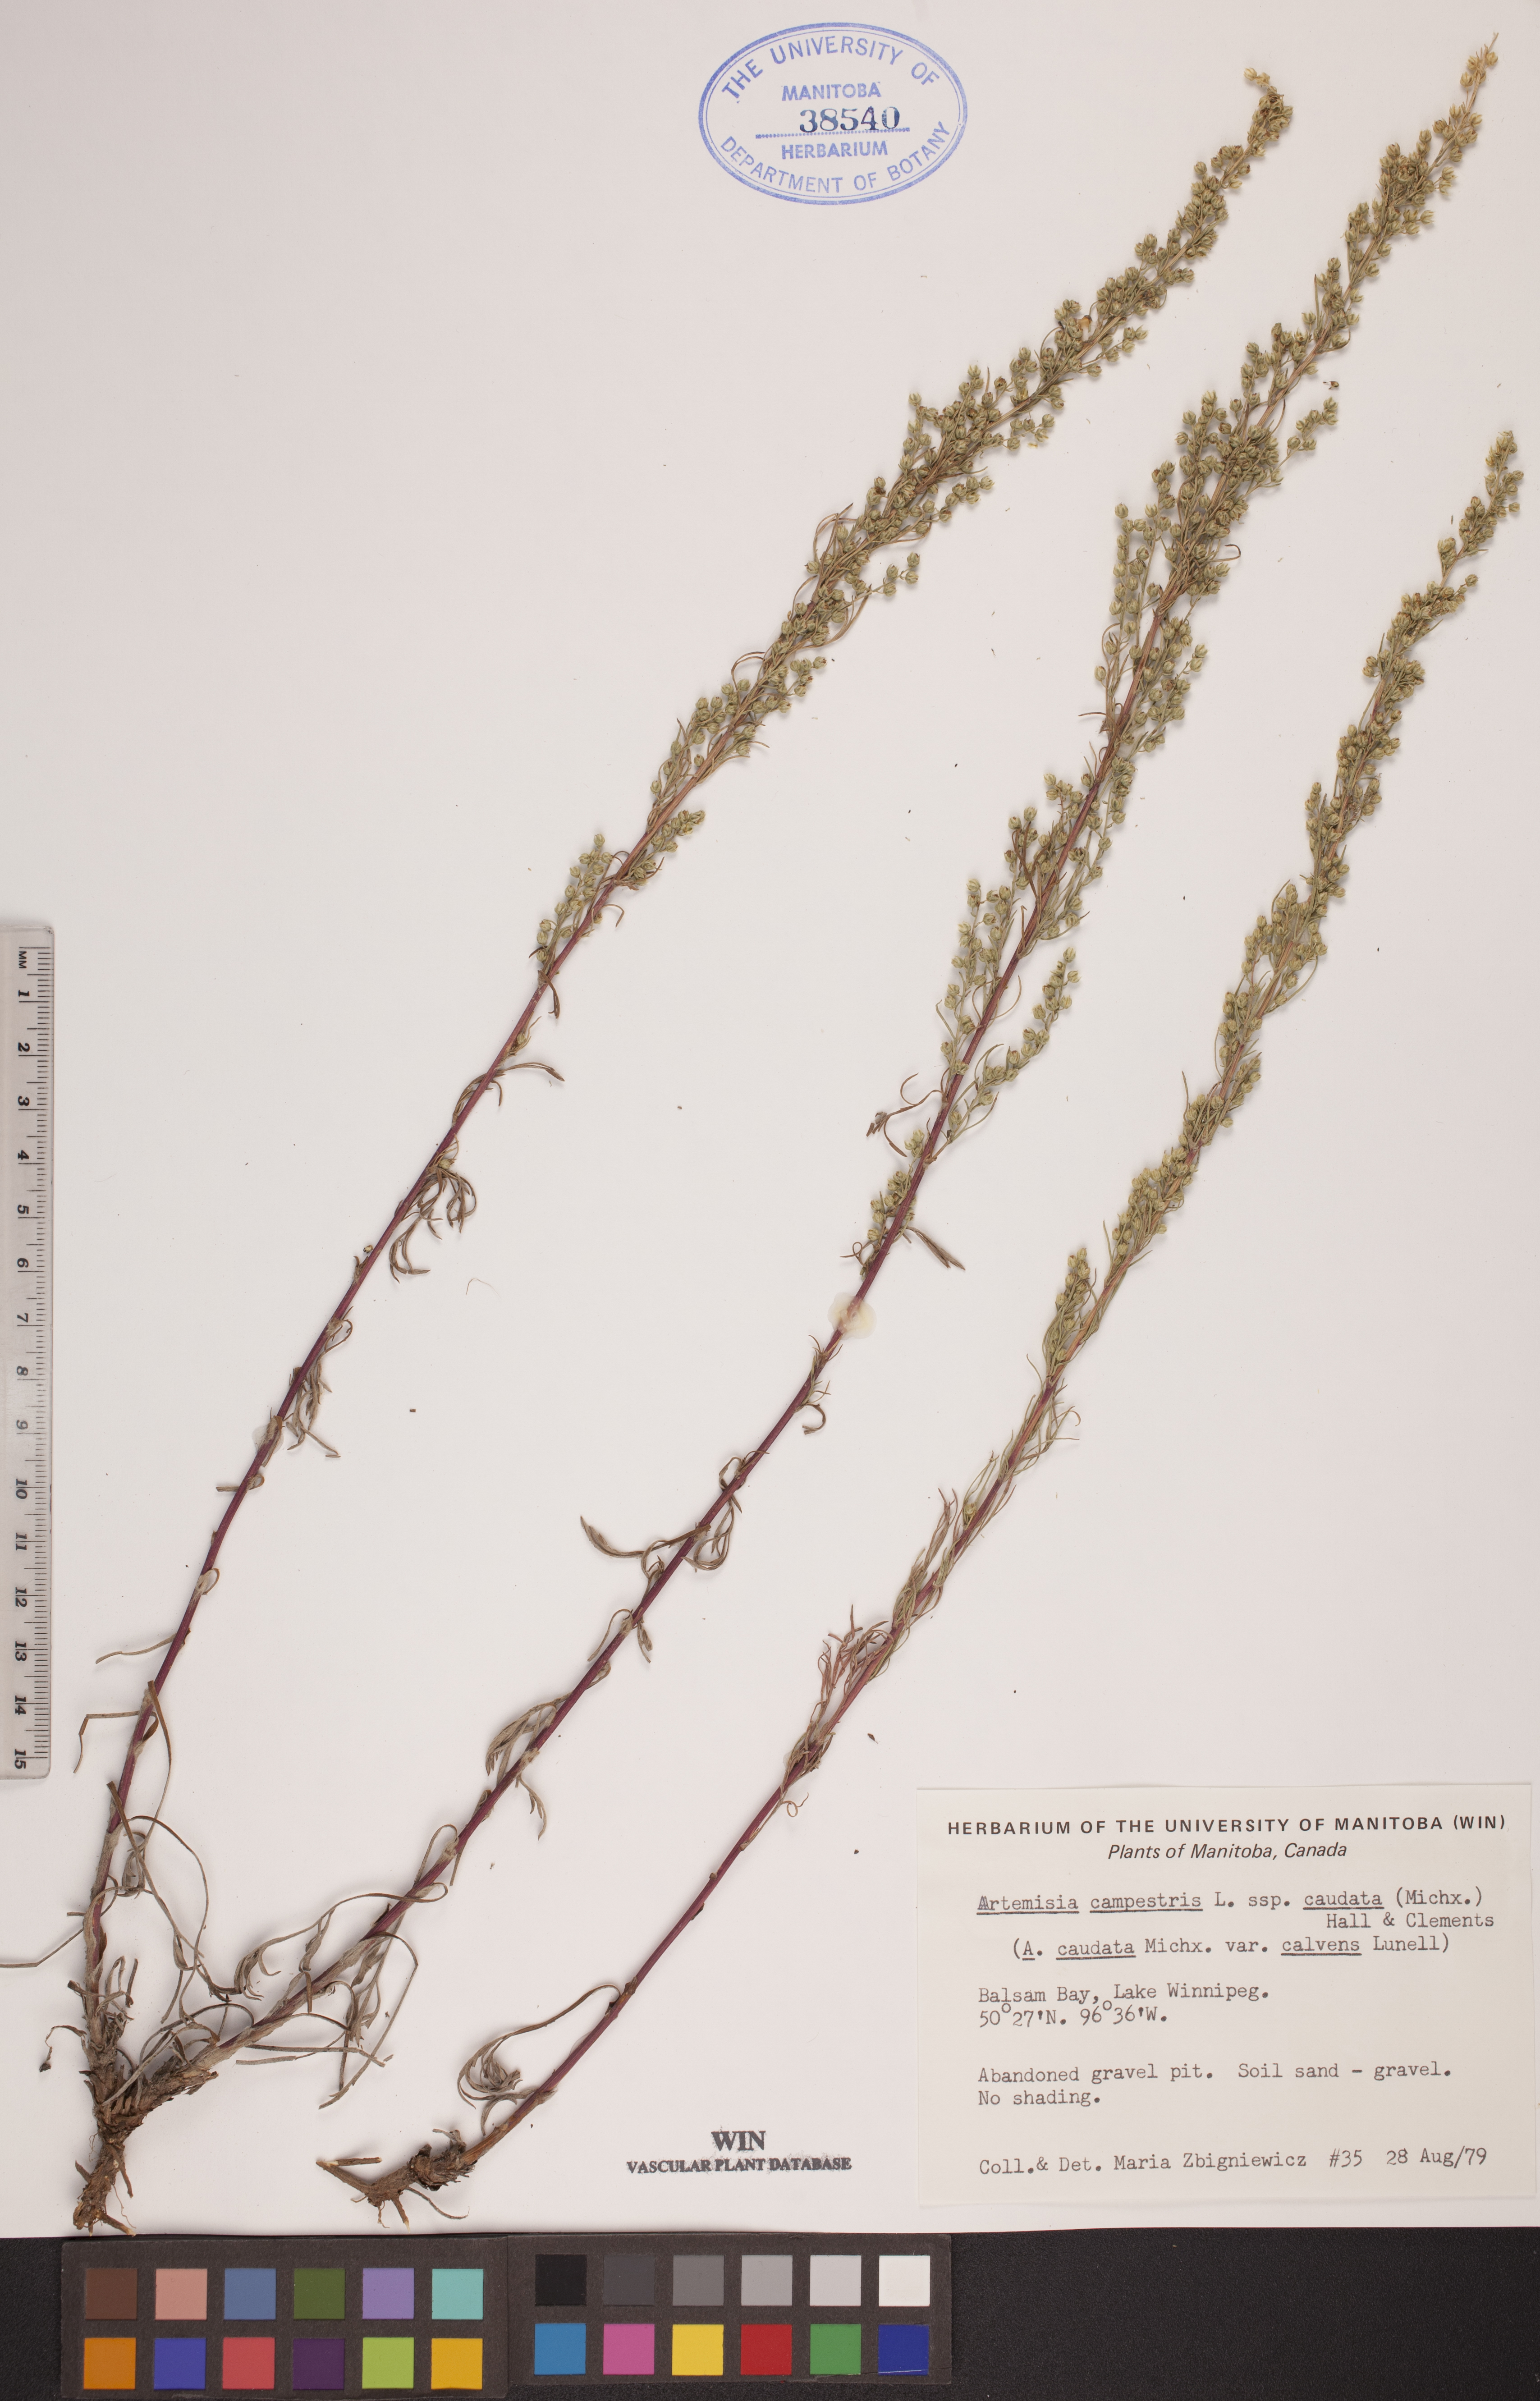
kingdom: Plantae
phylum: Tracheophyta
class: Magnoliopsida
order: Asterales
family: Asteraceae
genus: Artemisia
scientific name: Artemisia campestris
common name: Field wormwood
